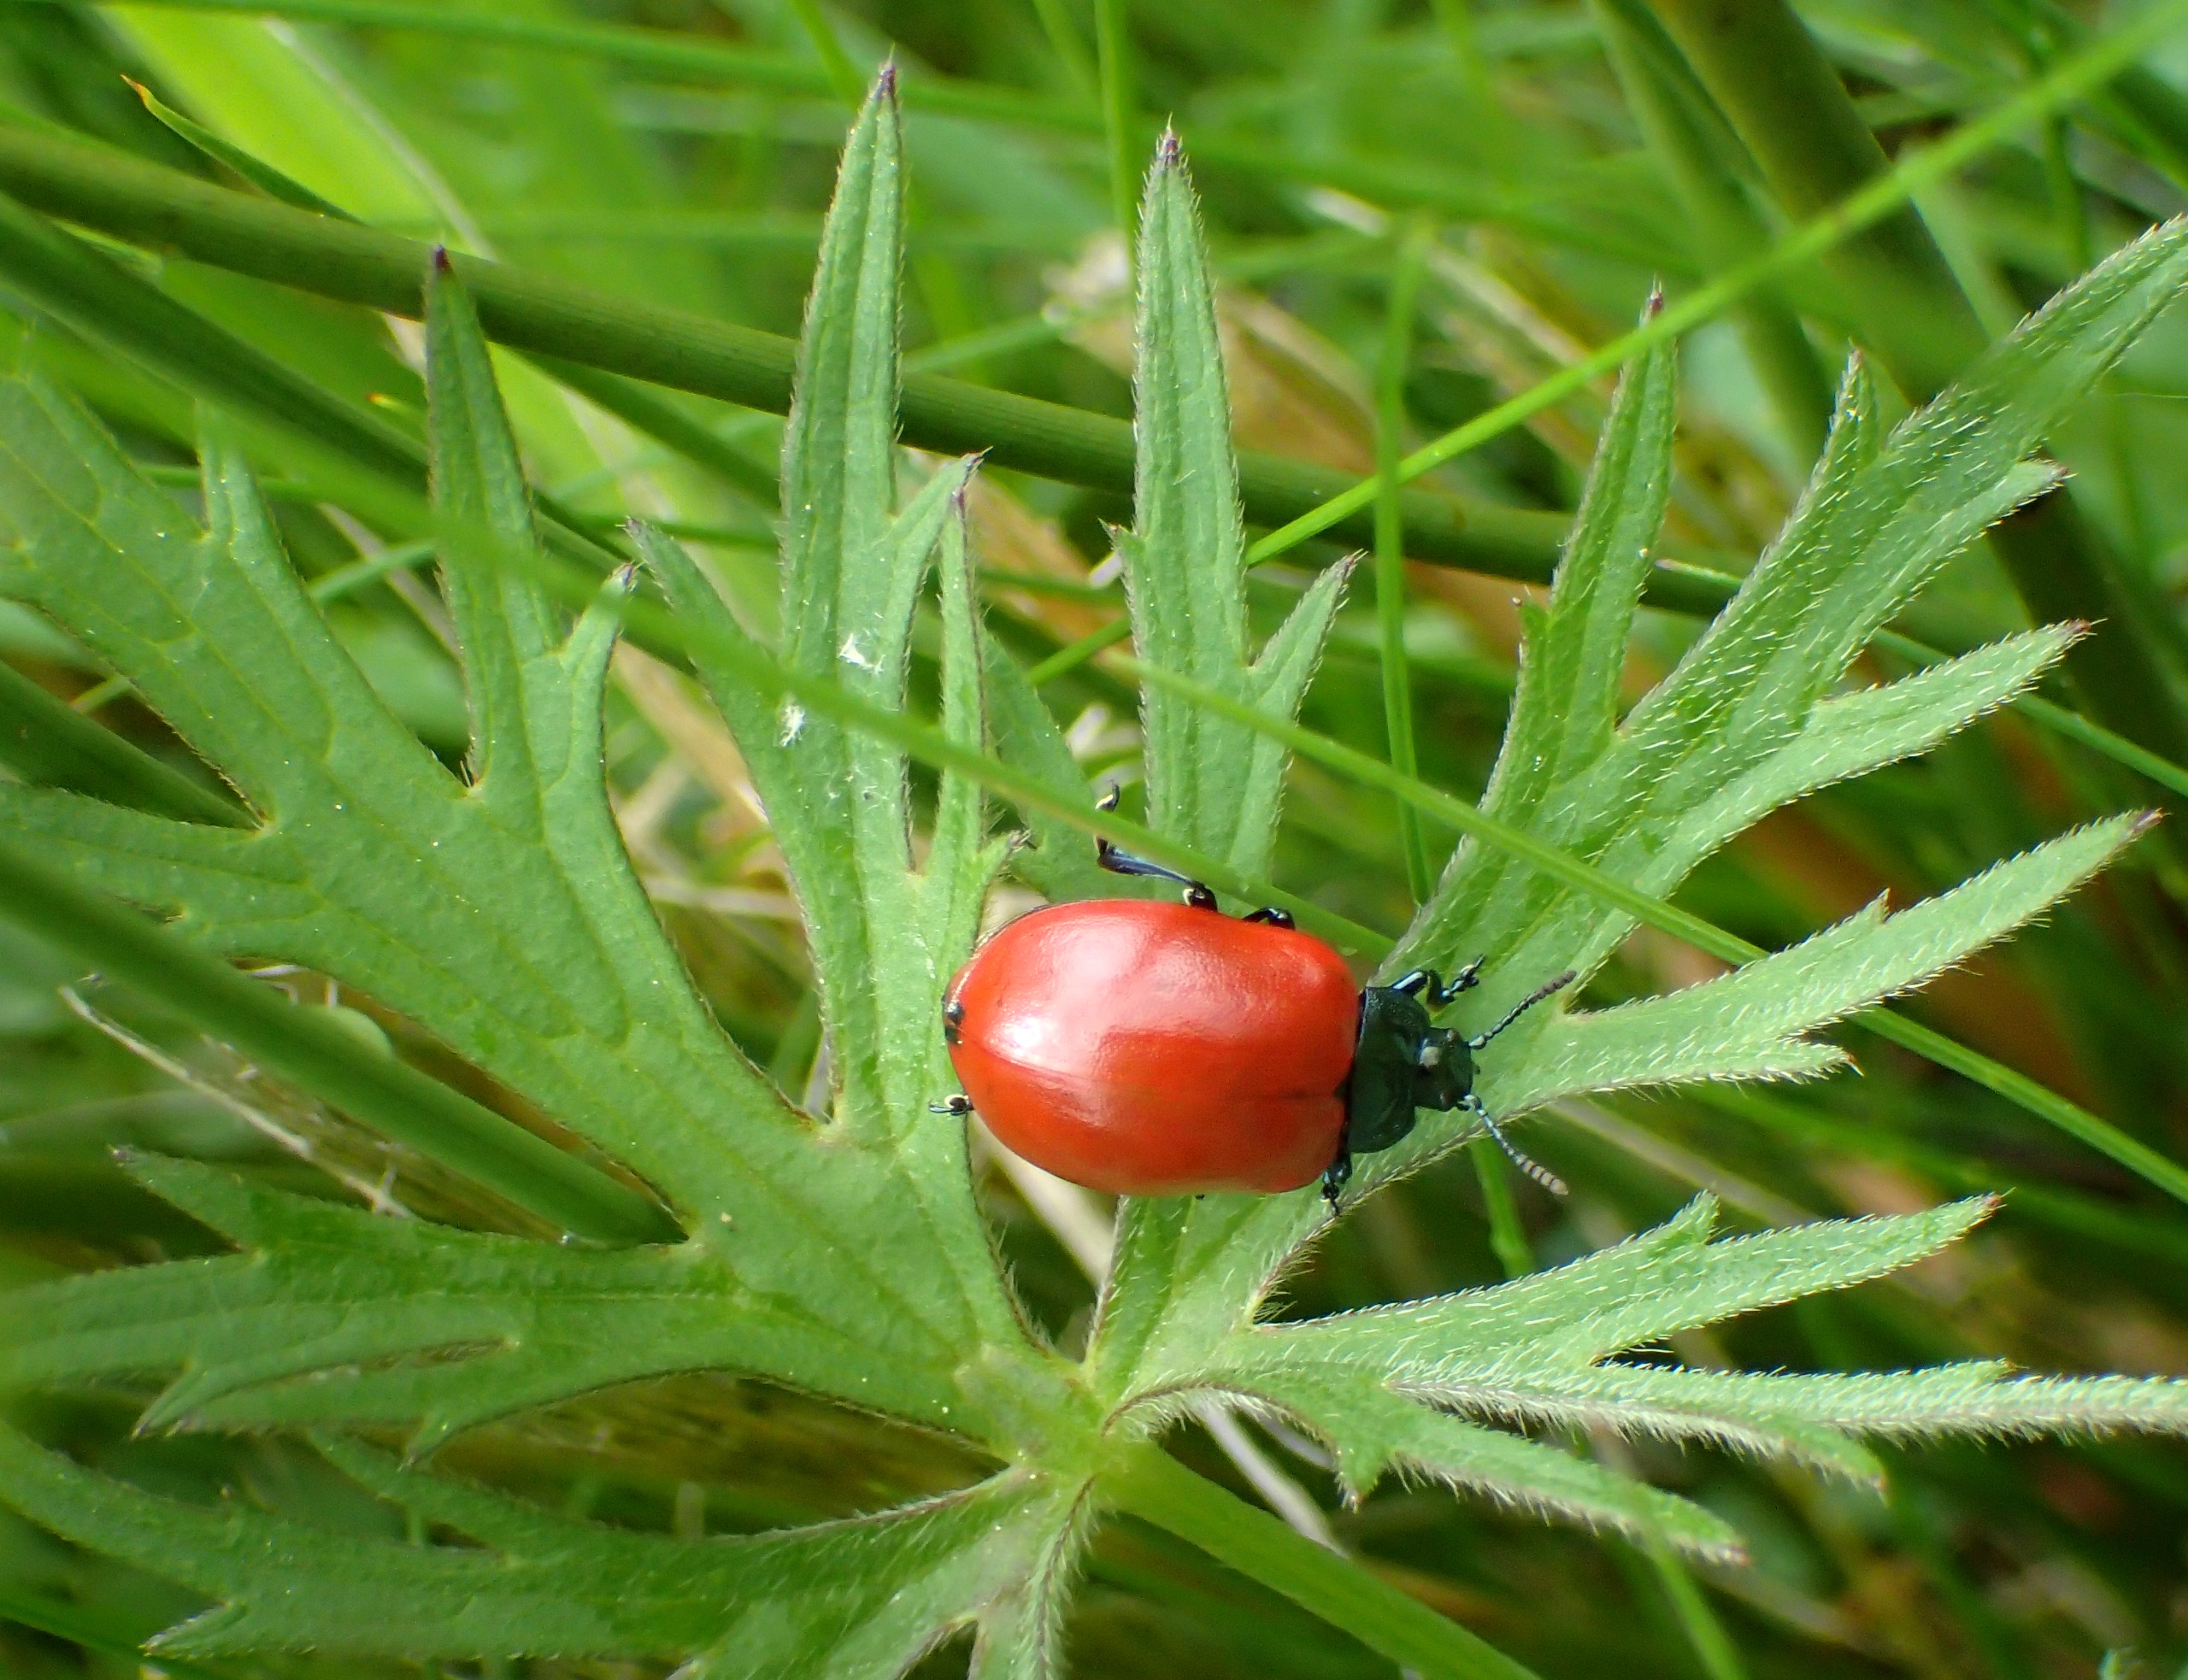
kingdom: Animalia
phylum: Arthropoda
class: Insecta
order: Coleoptera
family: Chrysomelidae
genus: Chrysomela
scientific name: Chrysomela populi
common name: Poppelbladbille
